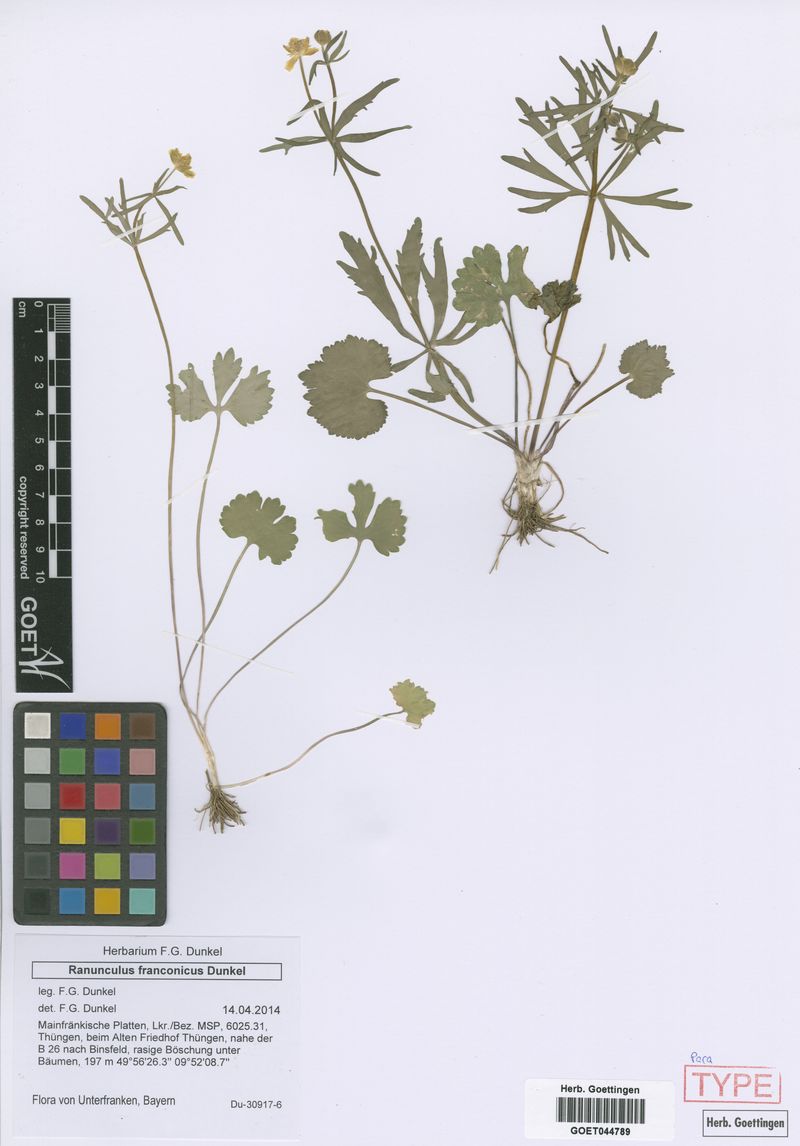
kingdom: Plantae
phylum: Tracheophyta
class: Magnoliopsida
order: Ranunculales
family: Ranunculaceae
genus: Ranunculus
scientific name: Ranunculus franconicus
